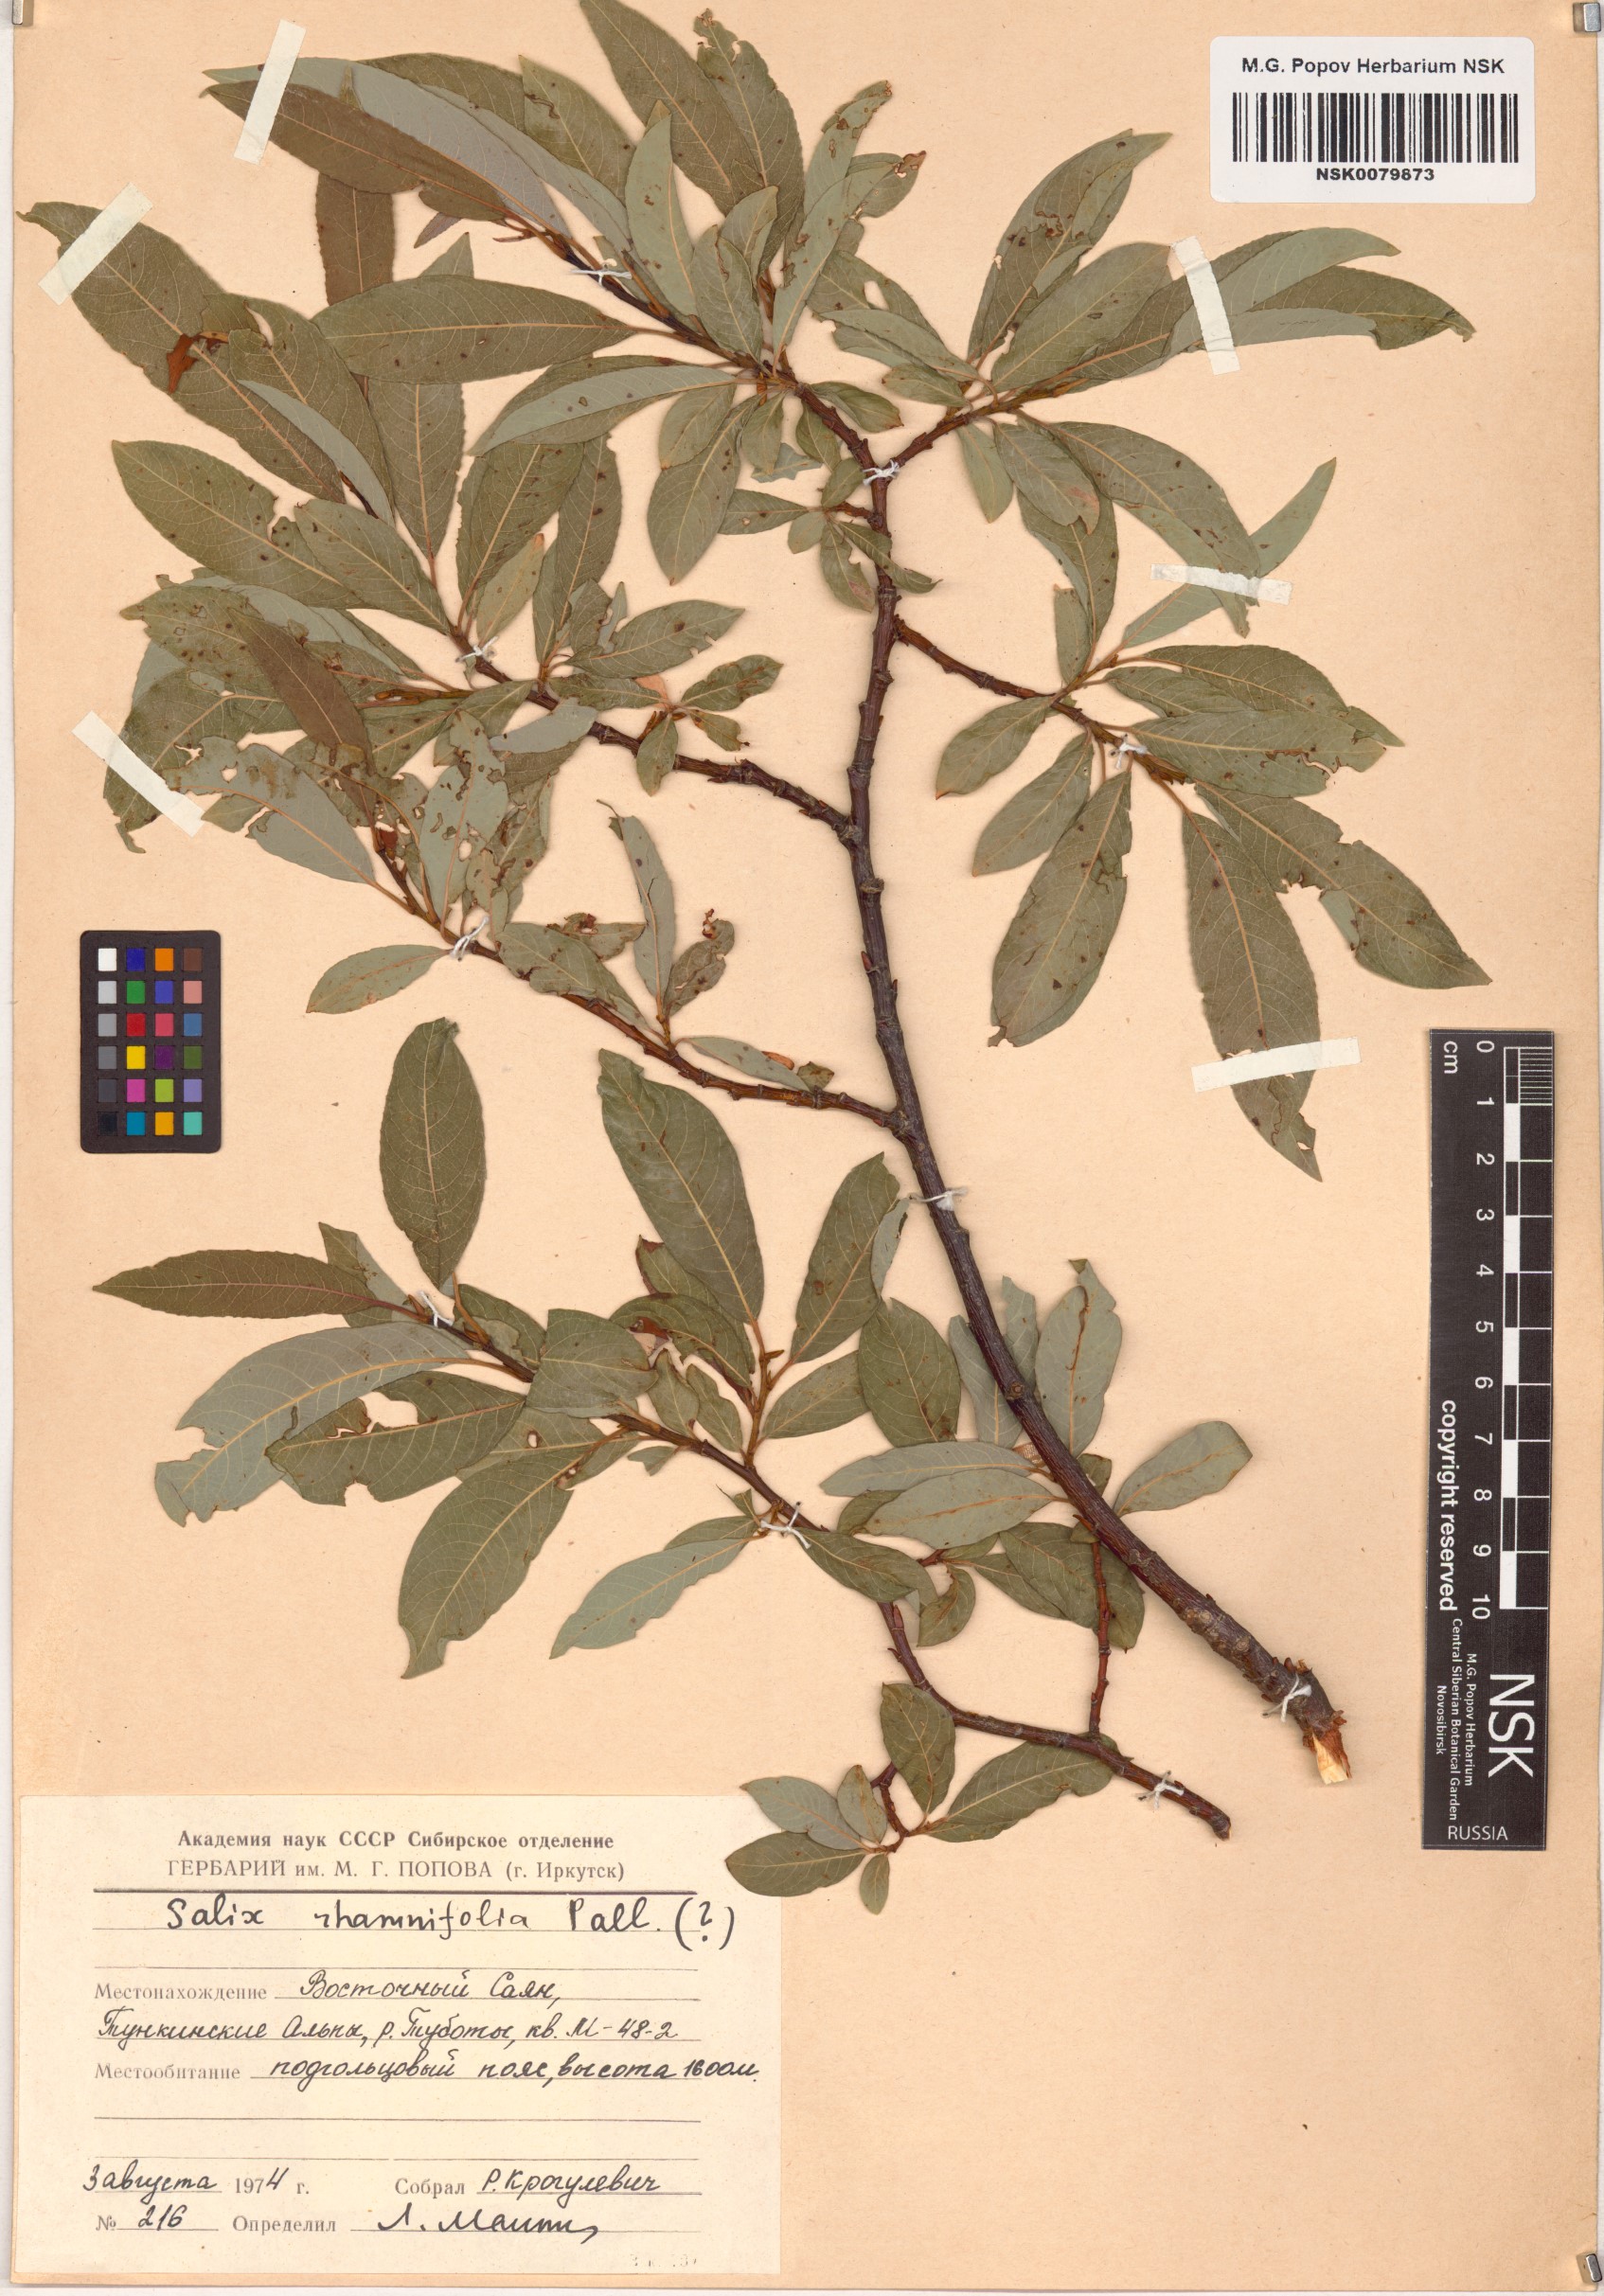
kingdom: Plantae
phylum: Tracheophyta
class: Magnoliopsida
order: Malpighiales
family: Salicaceae
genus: Salix
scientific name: Salix rhamnifolia
